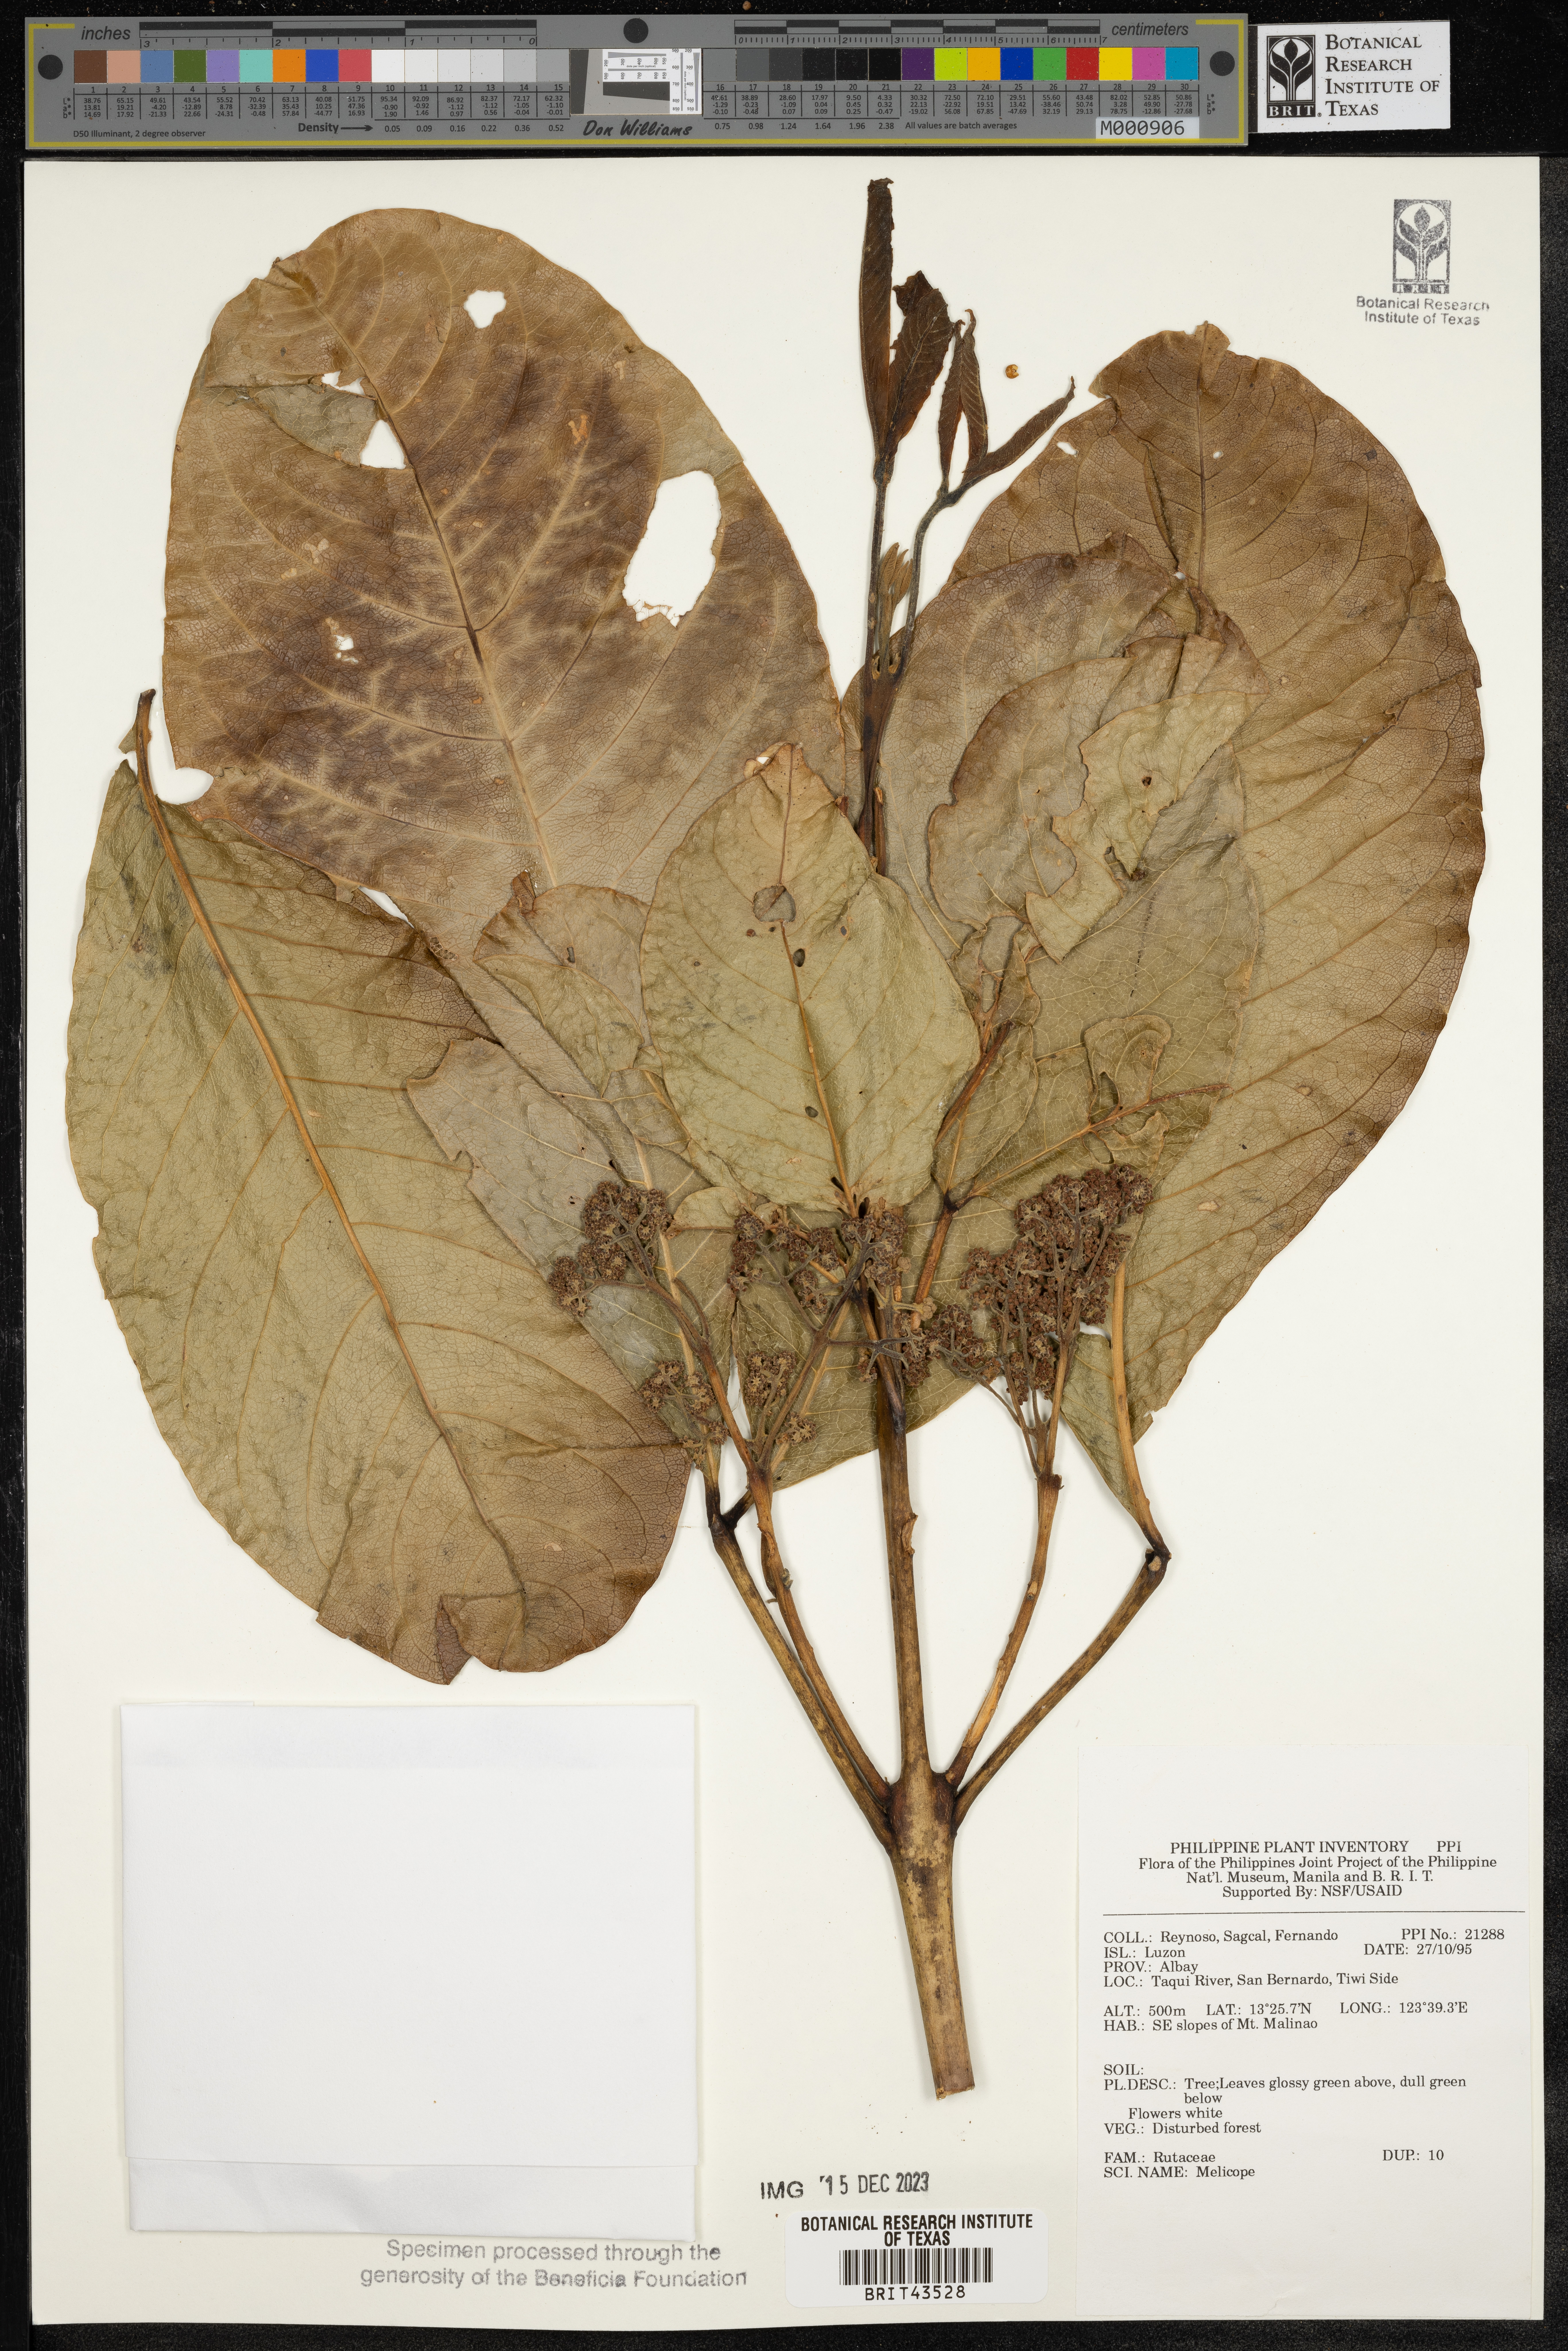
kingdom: Plantae
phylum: Tracheophyta
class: Magnoliopsida
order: Sapindales
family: Rutaceae
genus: Melicope
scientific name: Melicope
